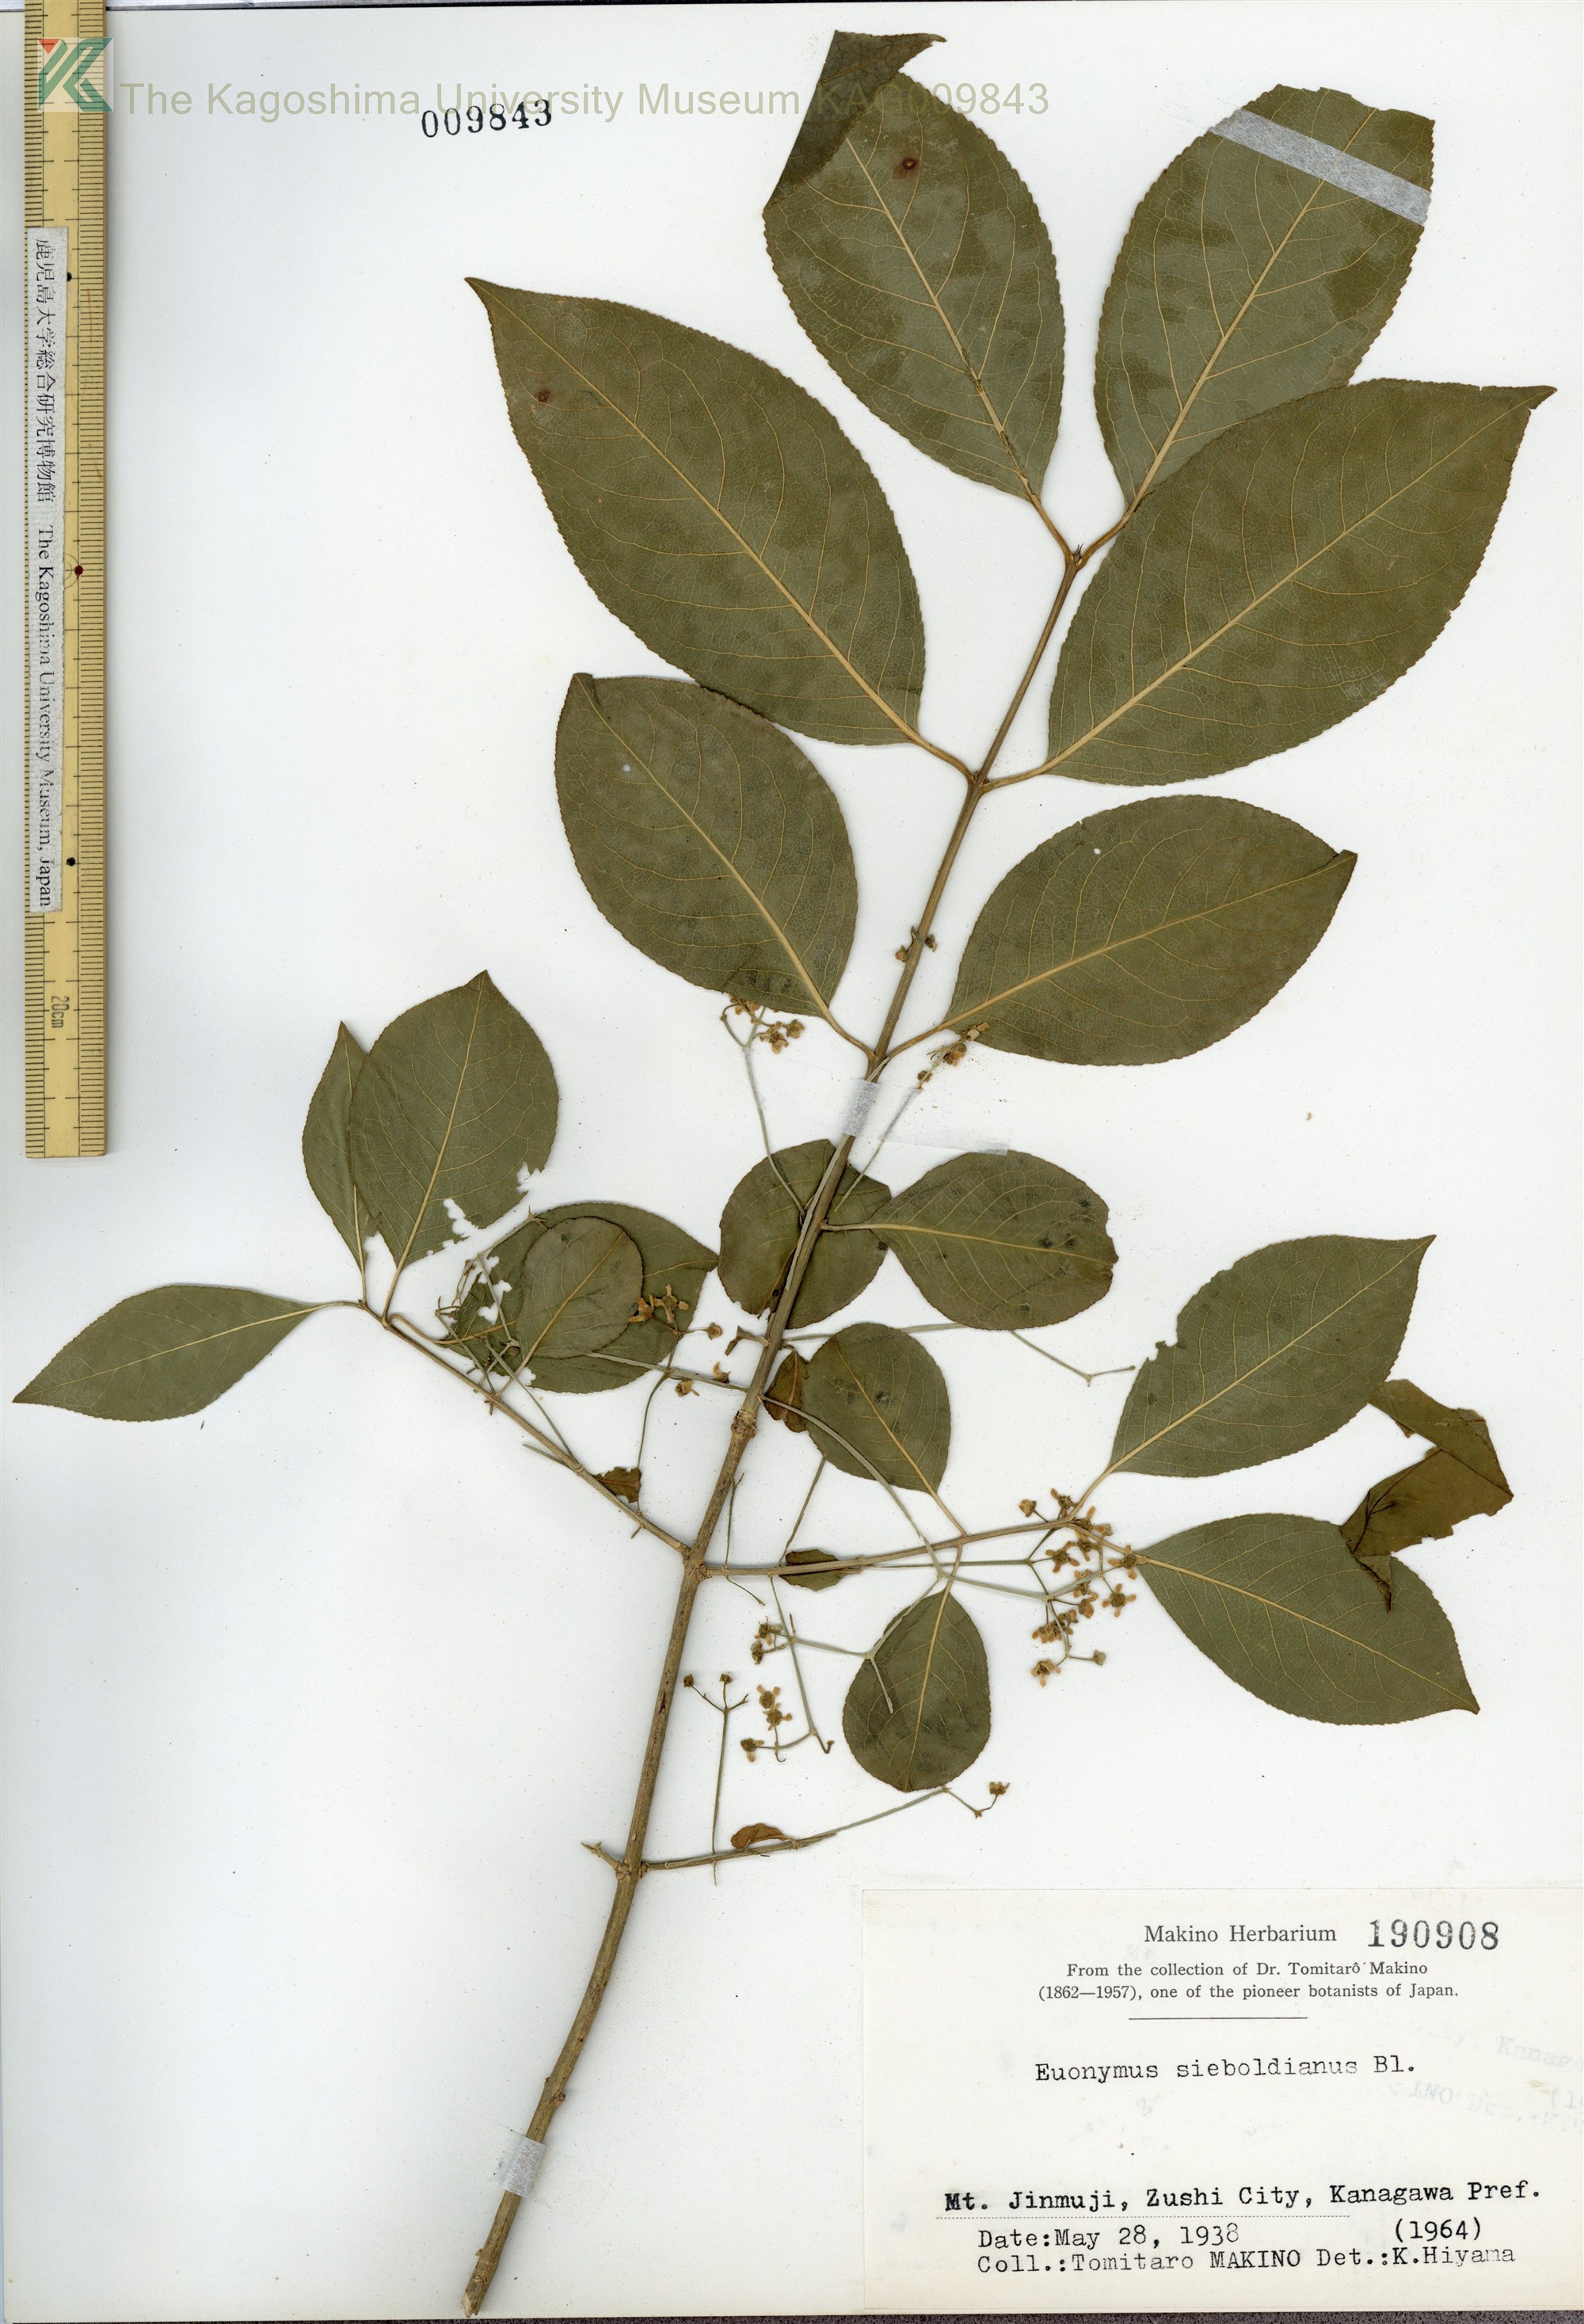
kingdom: Plantae
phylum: Tracheophyta
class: Magnoliopsida
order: Celastrales
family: Celastraceae
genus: Euonymus
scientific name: Euonymus hamiltonianus
